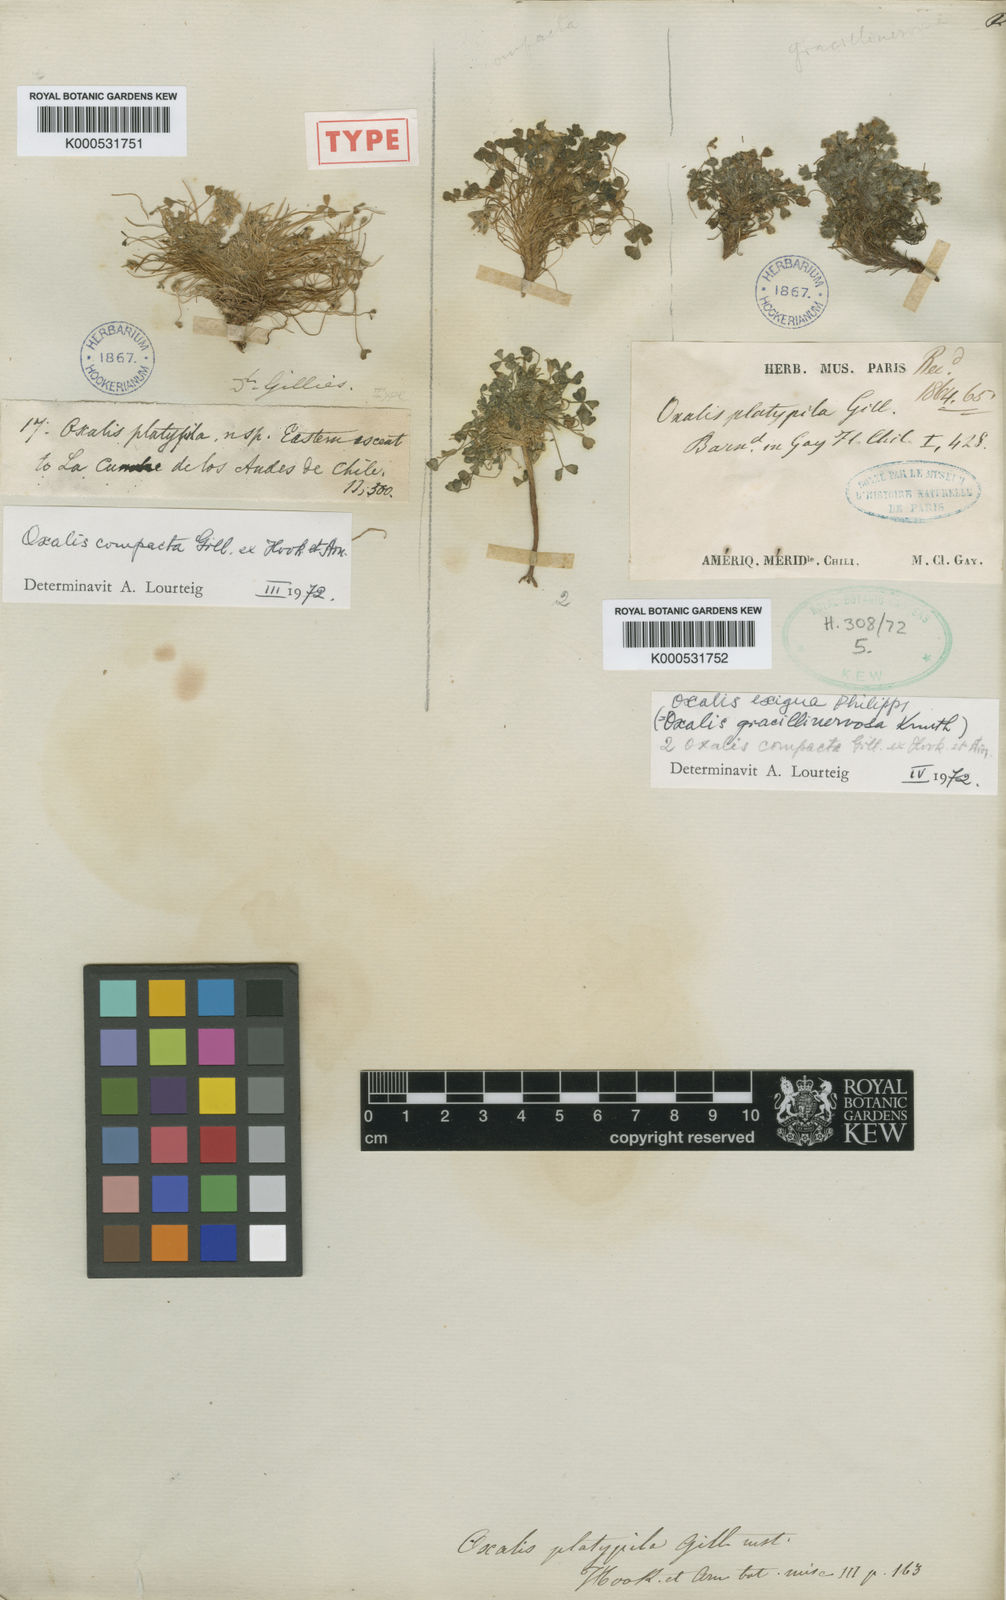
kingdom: Plantae
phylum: Tracheophyta
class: Magnoliopsida
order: Oxalidales
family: Oxalidaceae
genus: Oxalis
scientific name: Oxalis compacta
